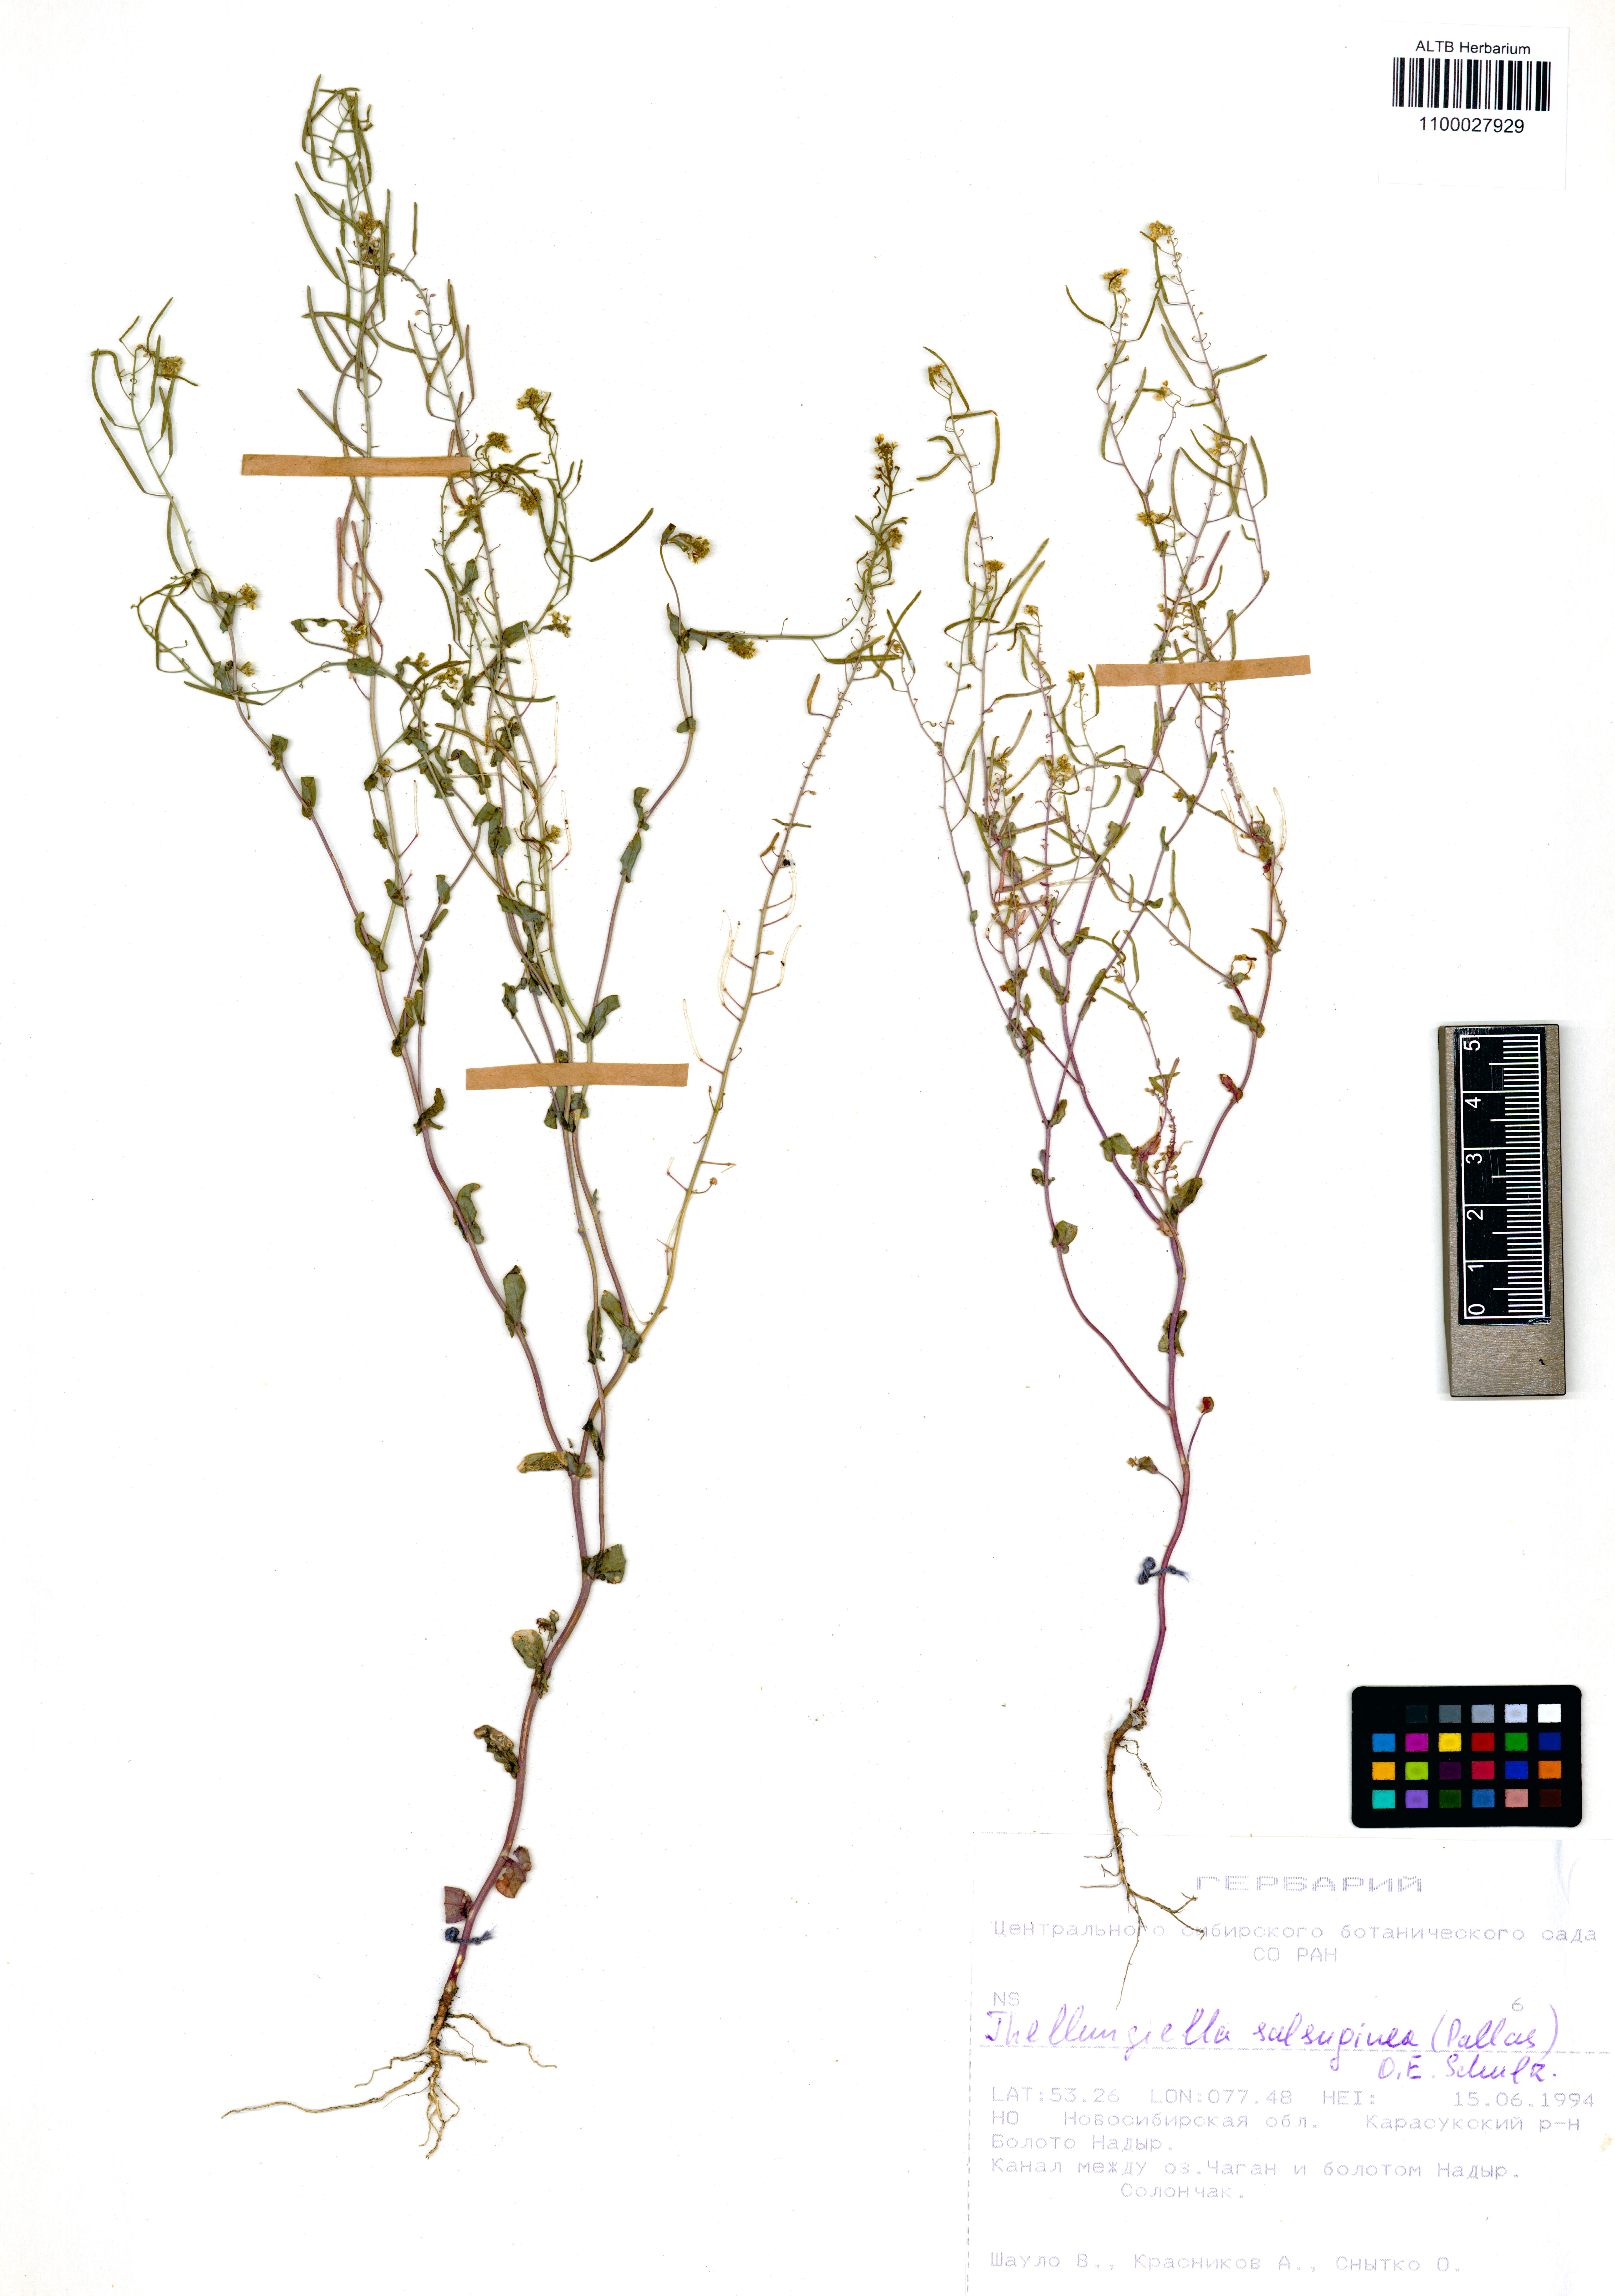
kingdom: Plantae
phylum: Tracheophyta
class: Magnoliopsida
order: Brassicales
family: Brassicaceae
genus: Eutrema
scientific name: Eutrema salsugineum
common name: Mouse-ear cress
